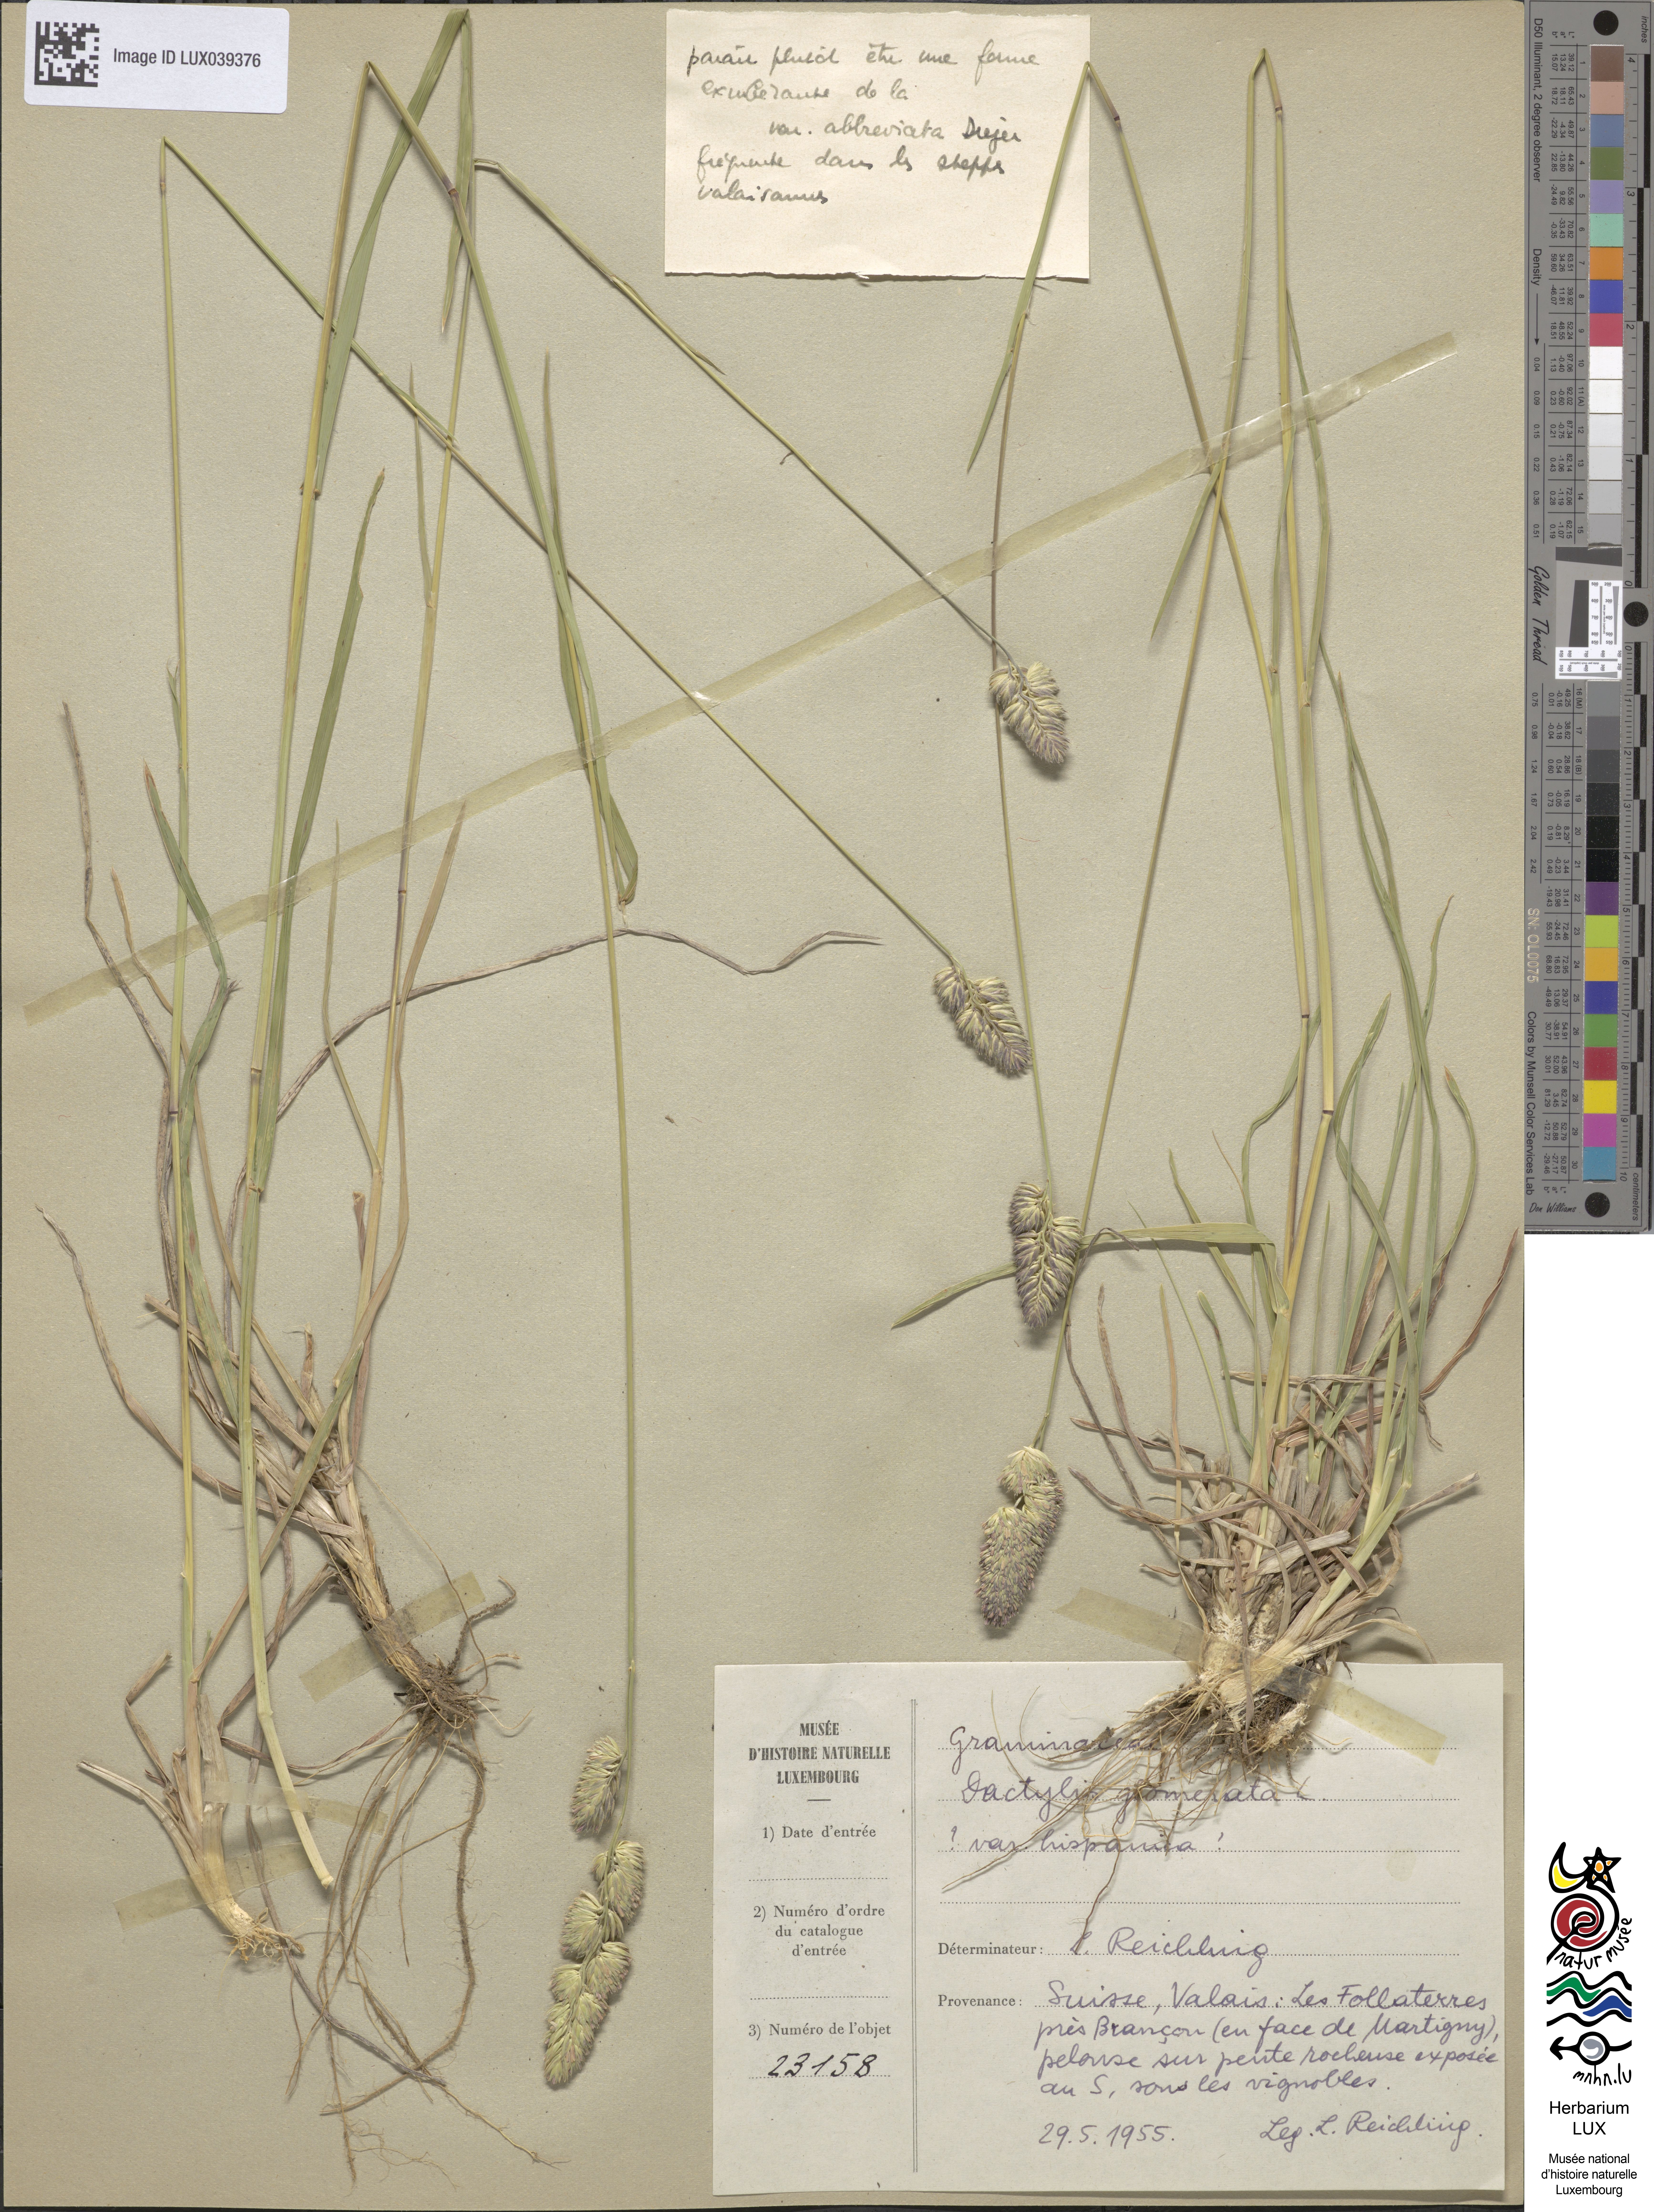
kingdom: Plantae
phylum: Tracheophyta
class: Liliopsida
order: Poales
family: Poaceae
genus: Dactylis
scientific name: Dactylis glomerata
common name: Orchardgrass
